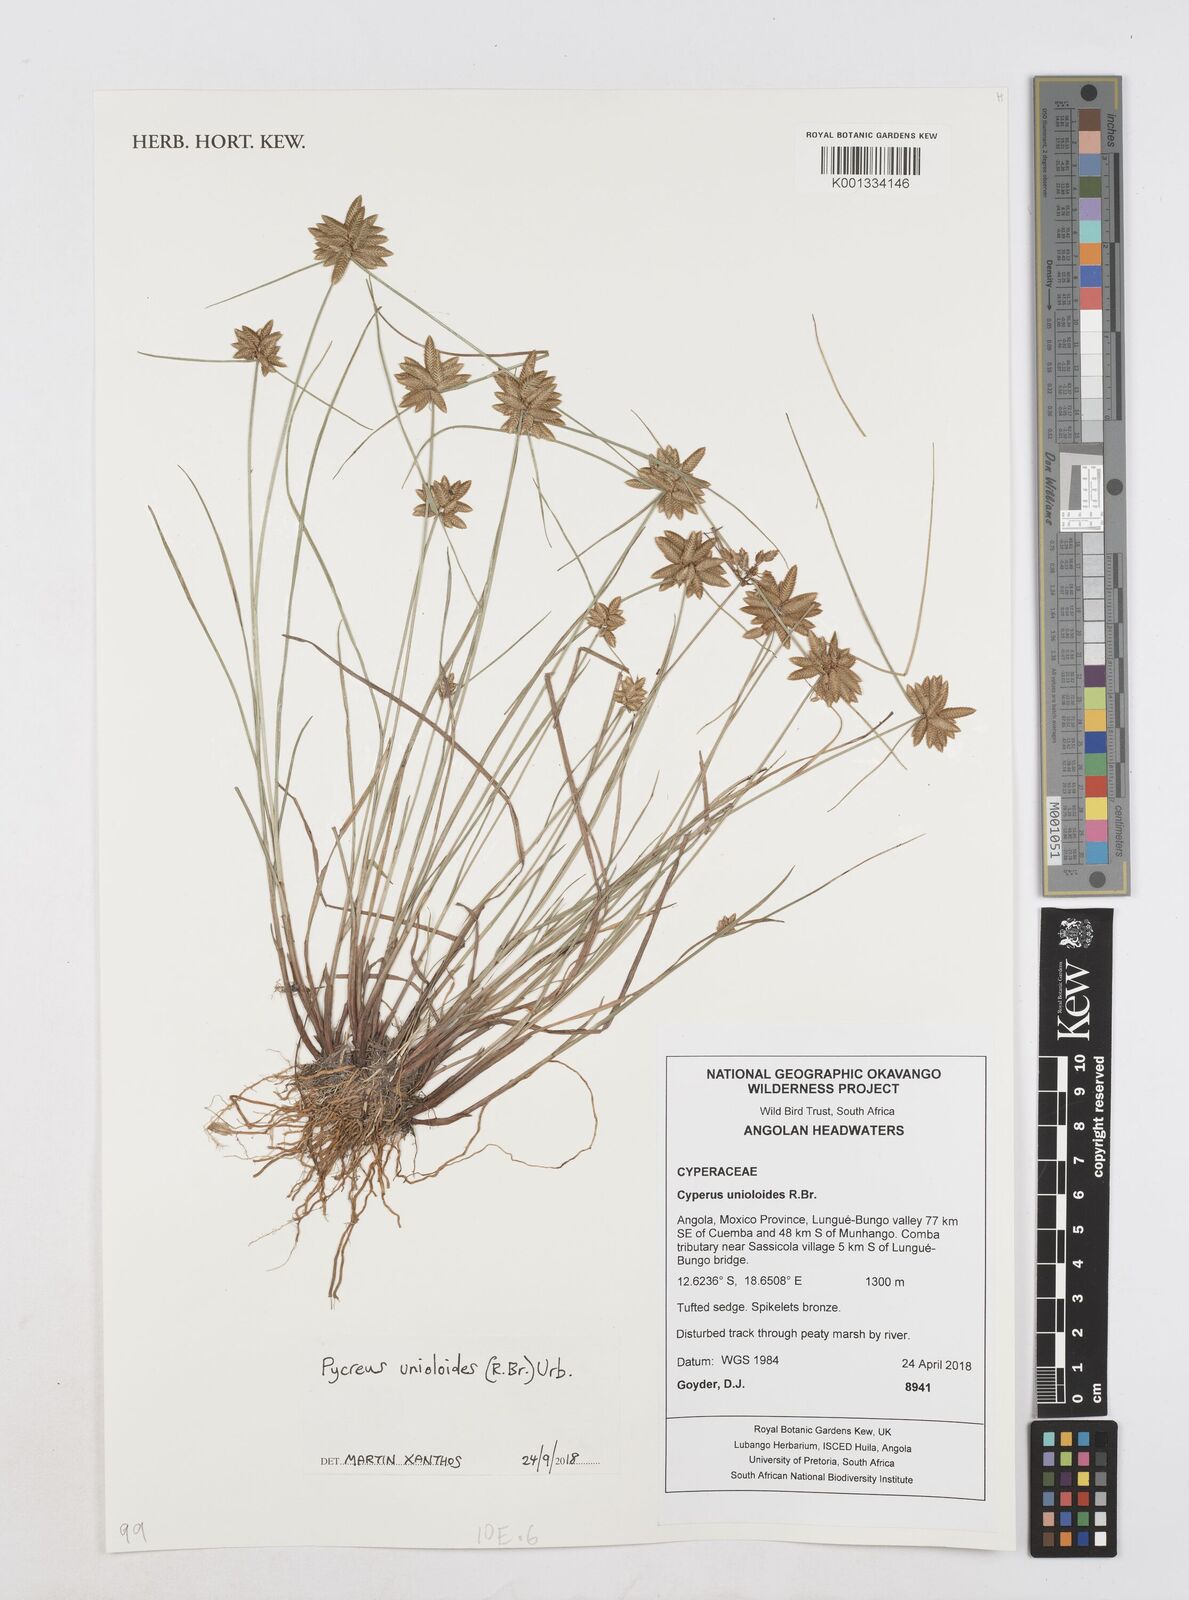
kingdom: Plantae
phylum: Tracheophyta
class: Liliopsida
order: Poales
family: Cyperaceae
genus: Cyperus
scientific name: Cyperus unioloides
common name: Uniola flatsedge
